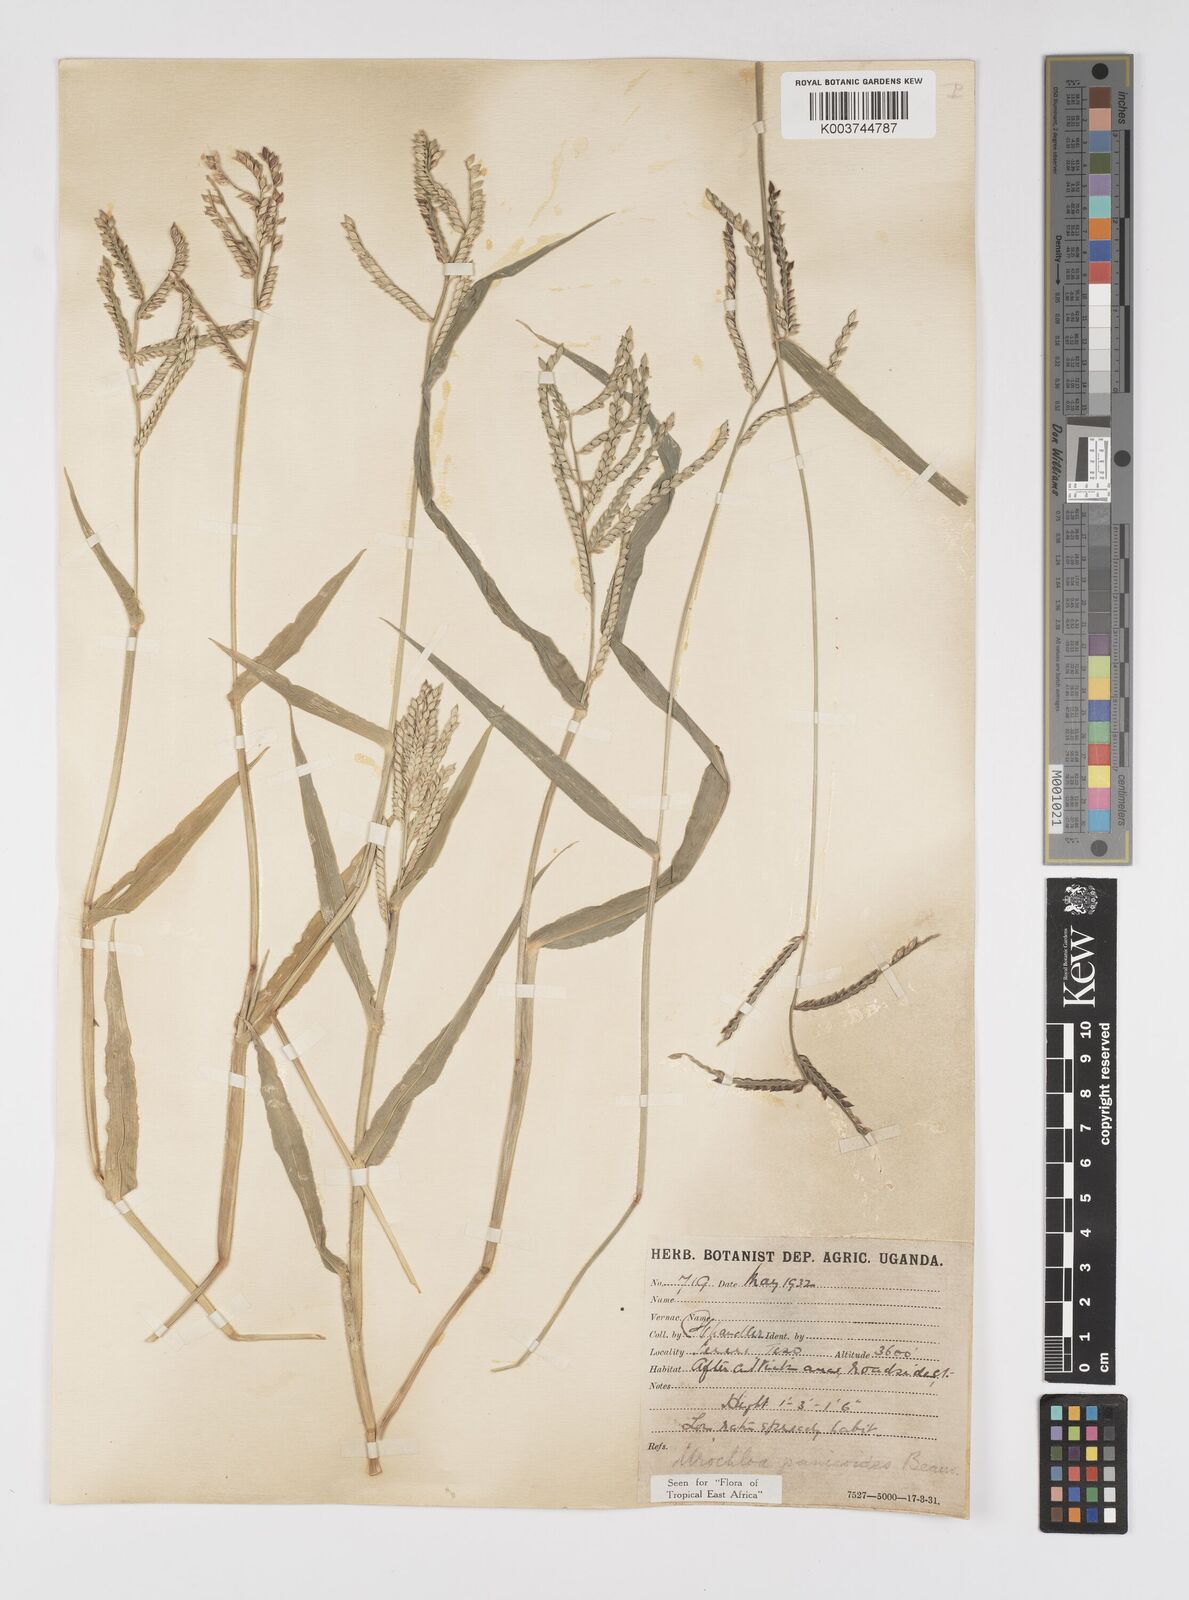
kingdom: Plantae
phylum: Tracheophyta
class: Liliopsida
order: Poales
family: Poaceae
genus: Urochloa
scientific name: Urochloa panicoides
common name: Sharp-flowered signal-grass
